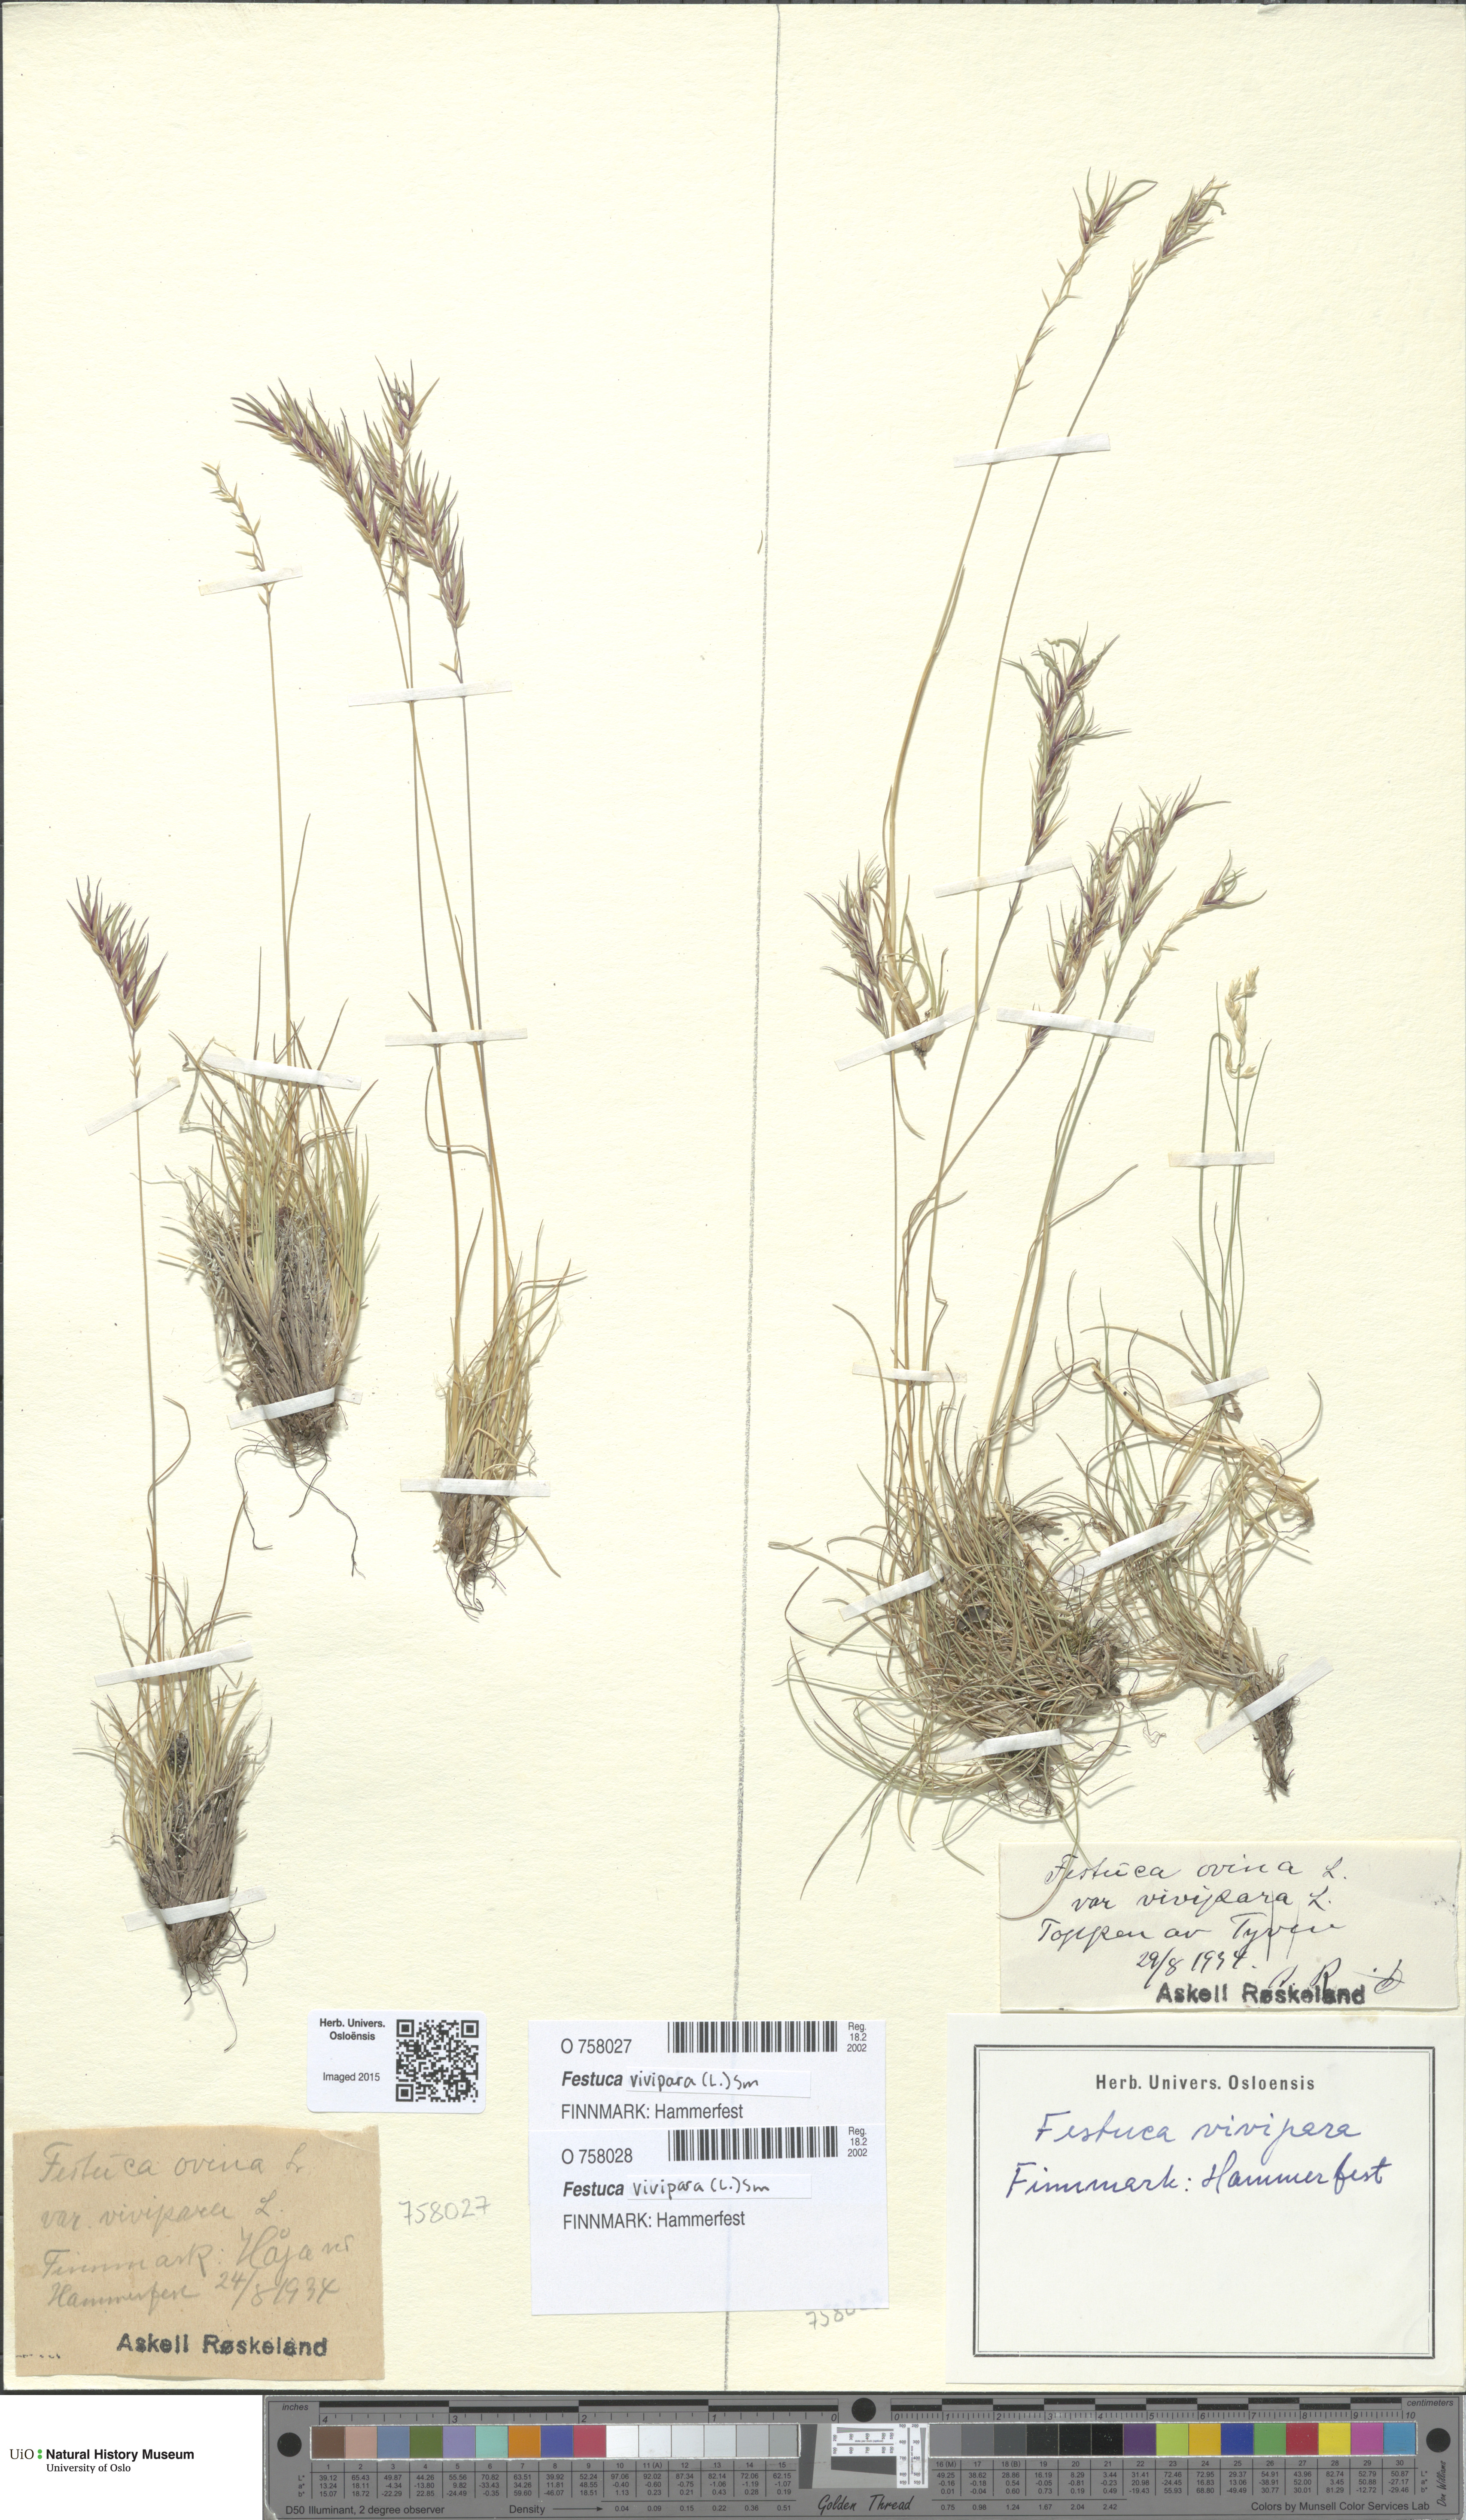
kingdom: Plantae
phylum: Tracheophyta
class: Liliopsida
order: Poales
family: Poaceae
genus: Festuca
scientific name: Festuca vivipara
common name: Viviparous sheep's-fescue
